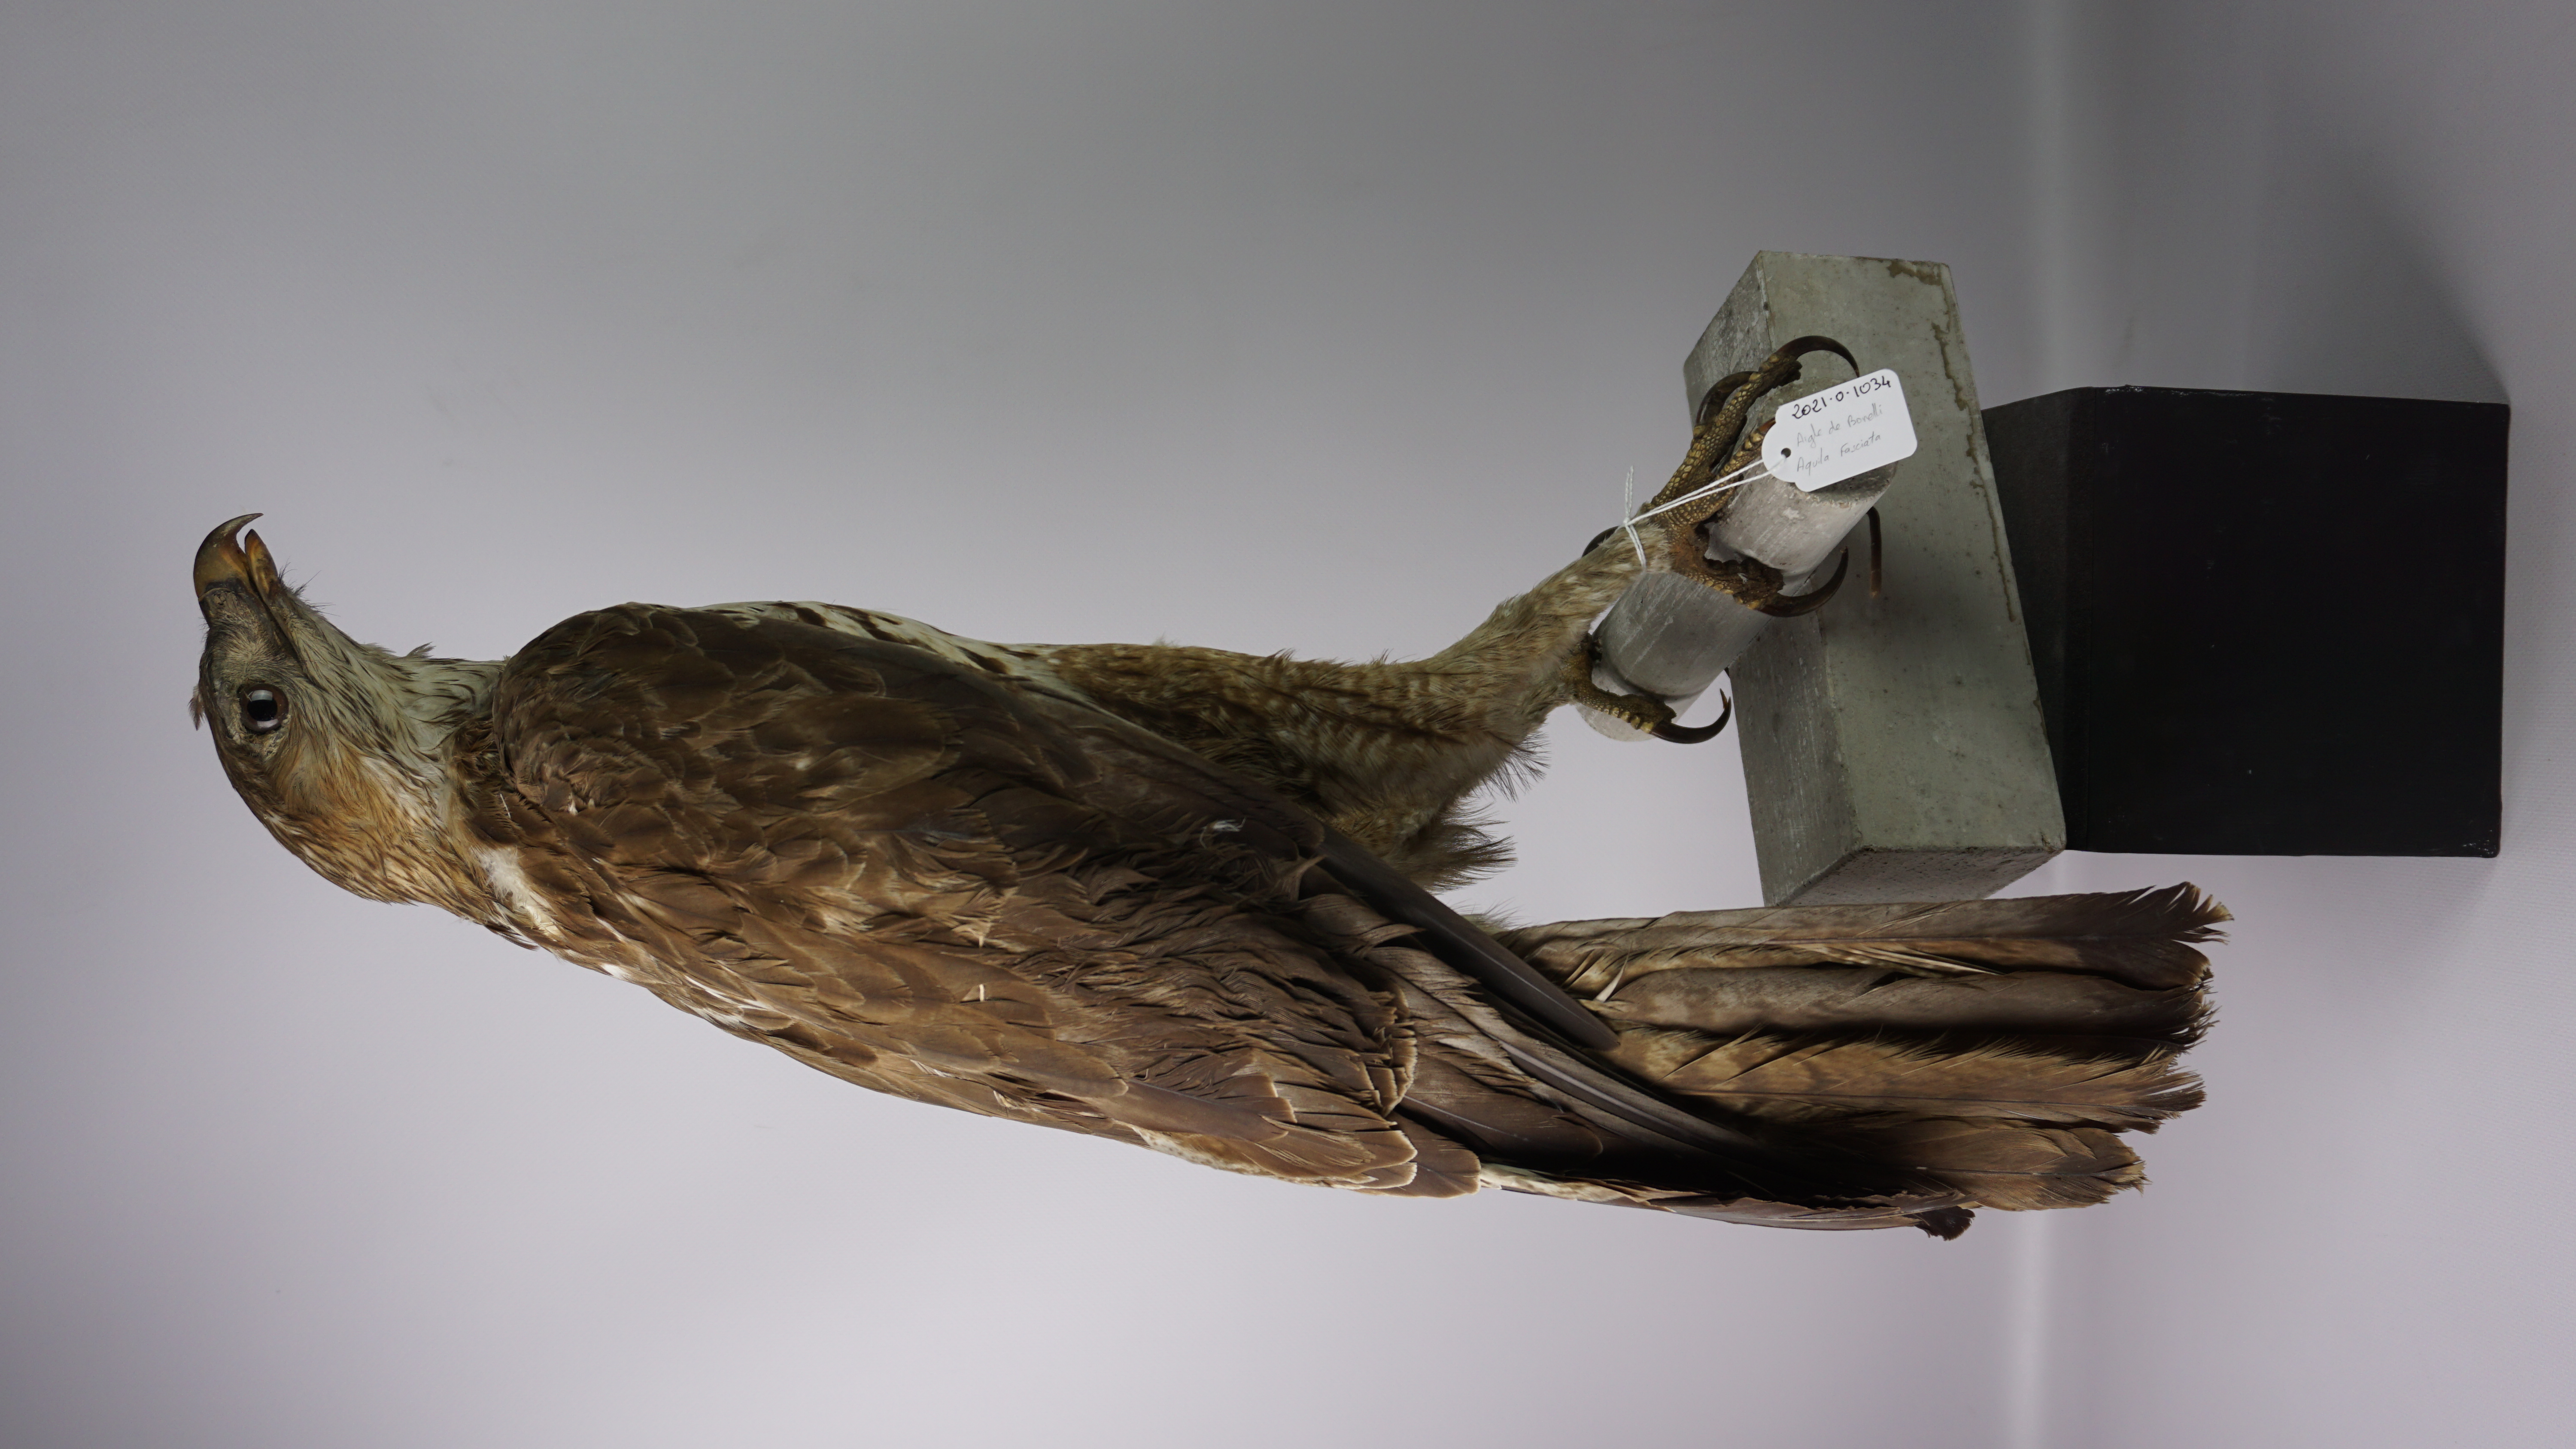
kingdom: Animalia
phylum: Chordata
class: Aves
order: Accipitriformes
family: Accipitridae
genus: Aquila
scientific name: Aquila fasciata
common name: Bonelli's eagle
